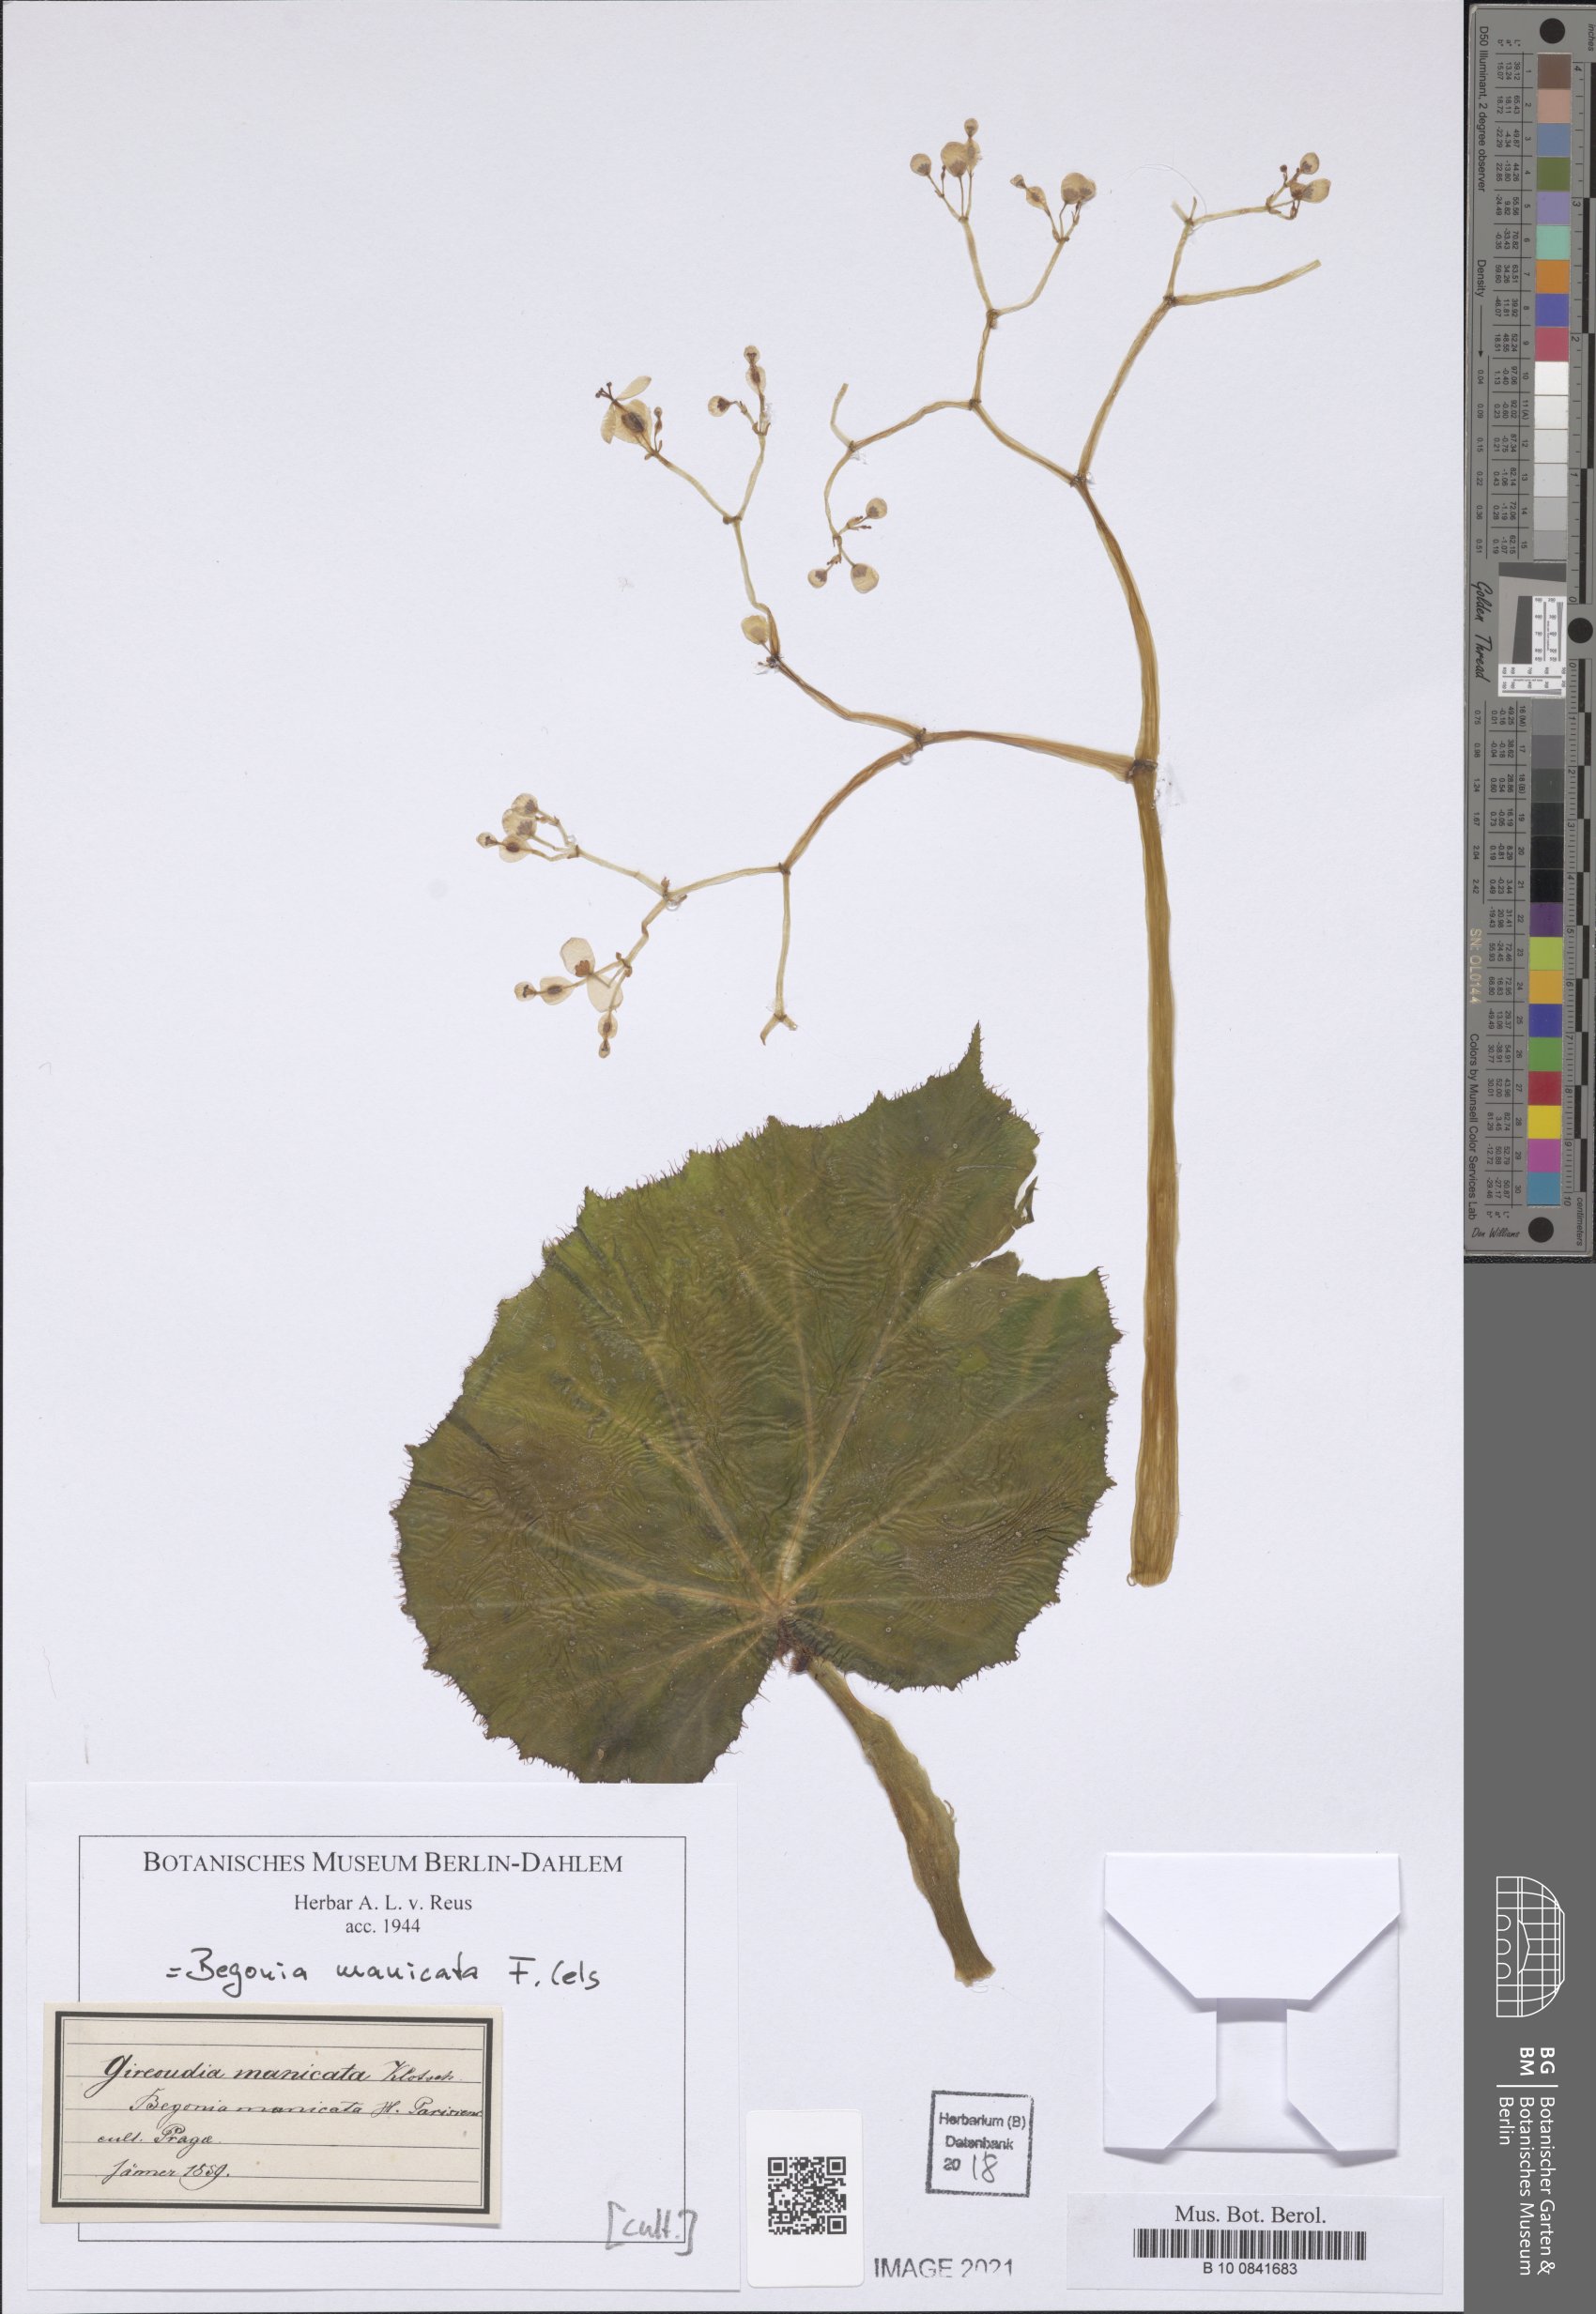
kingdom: Plantae
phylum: Tracheophyta
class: Magnoliopsida
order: Cucurbitales
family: Begoniaceae
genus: Begonia
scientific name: Begonia manicata
